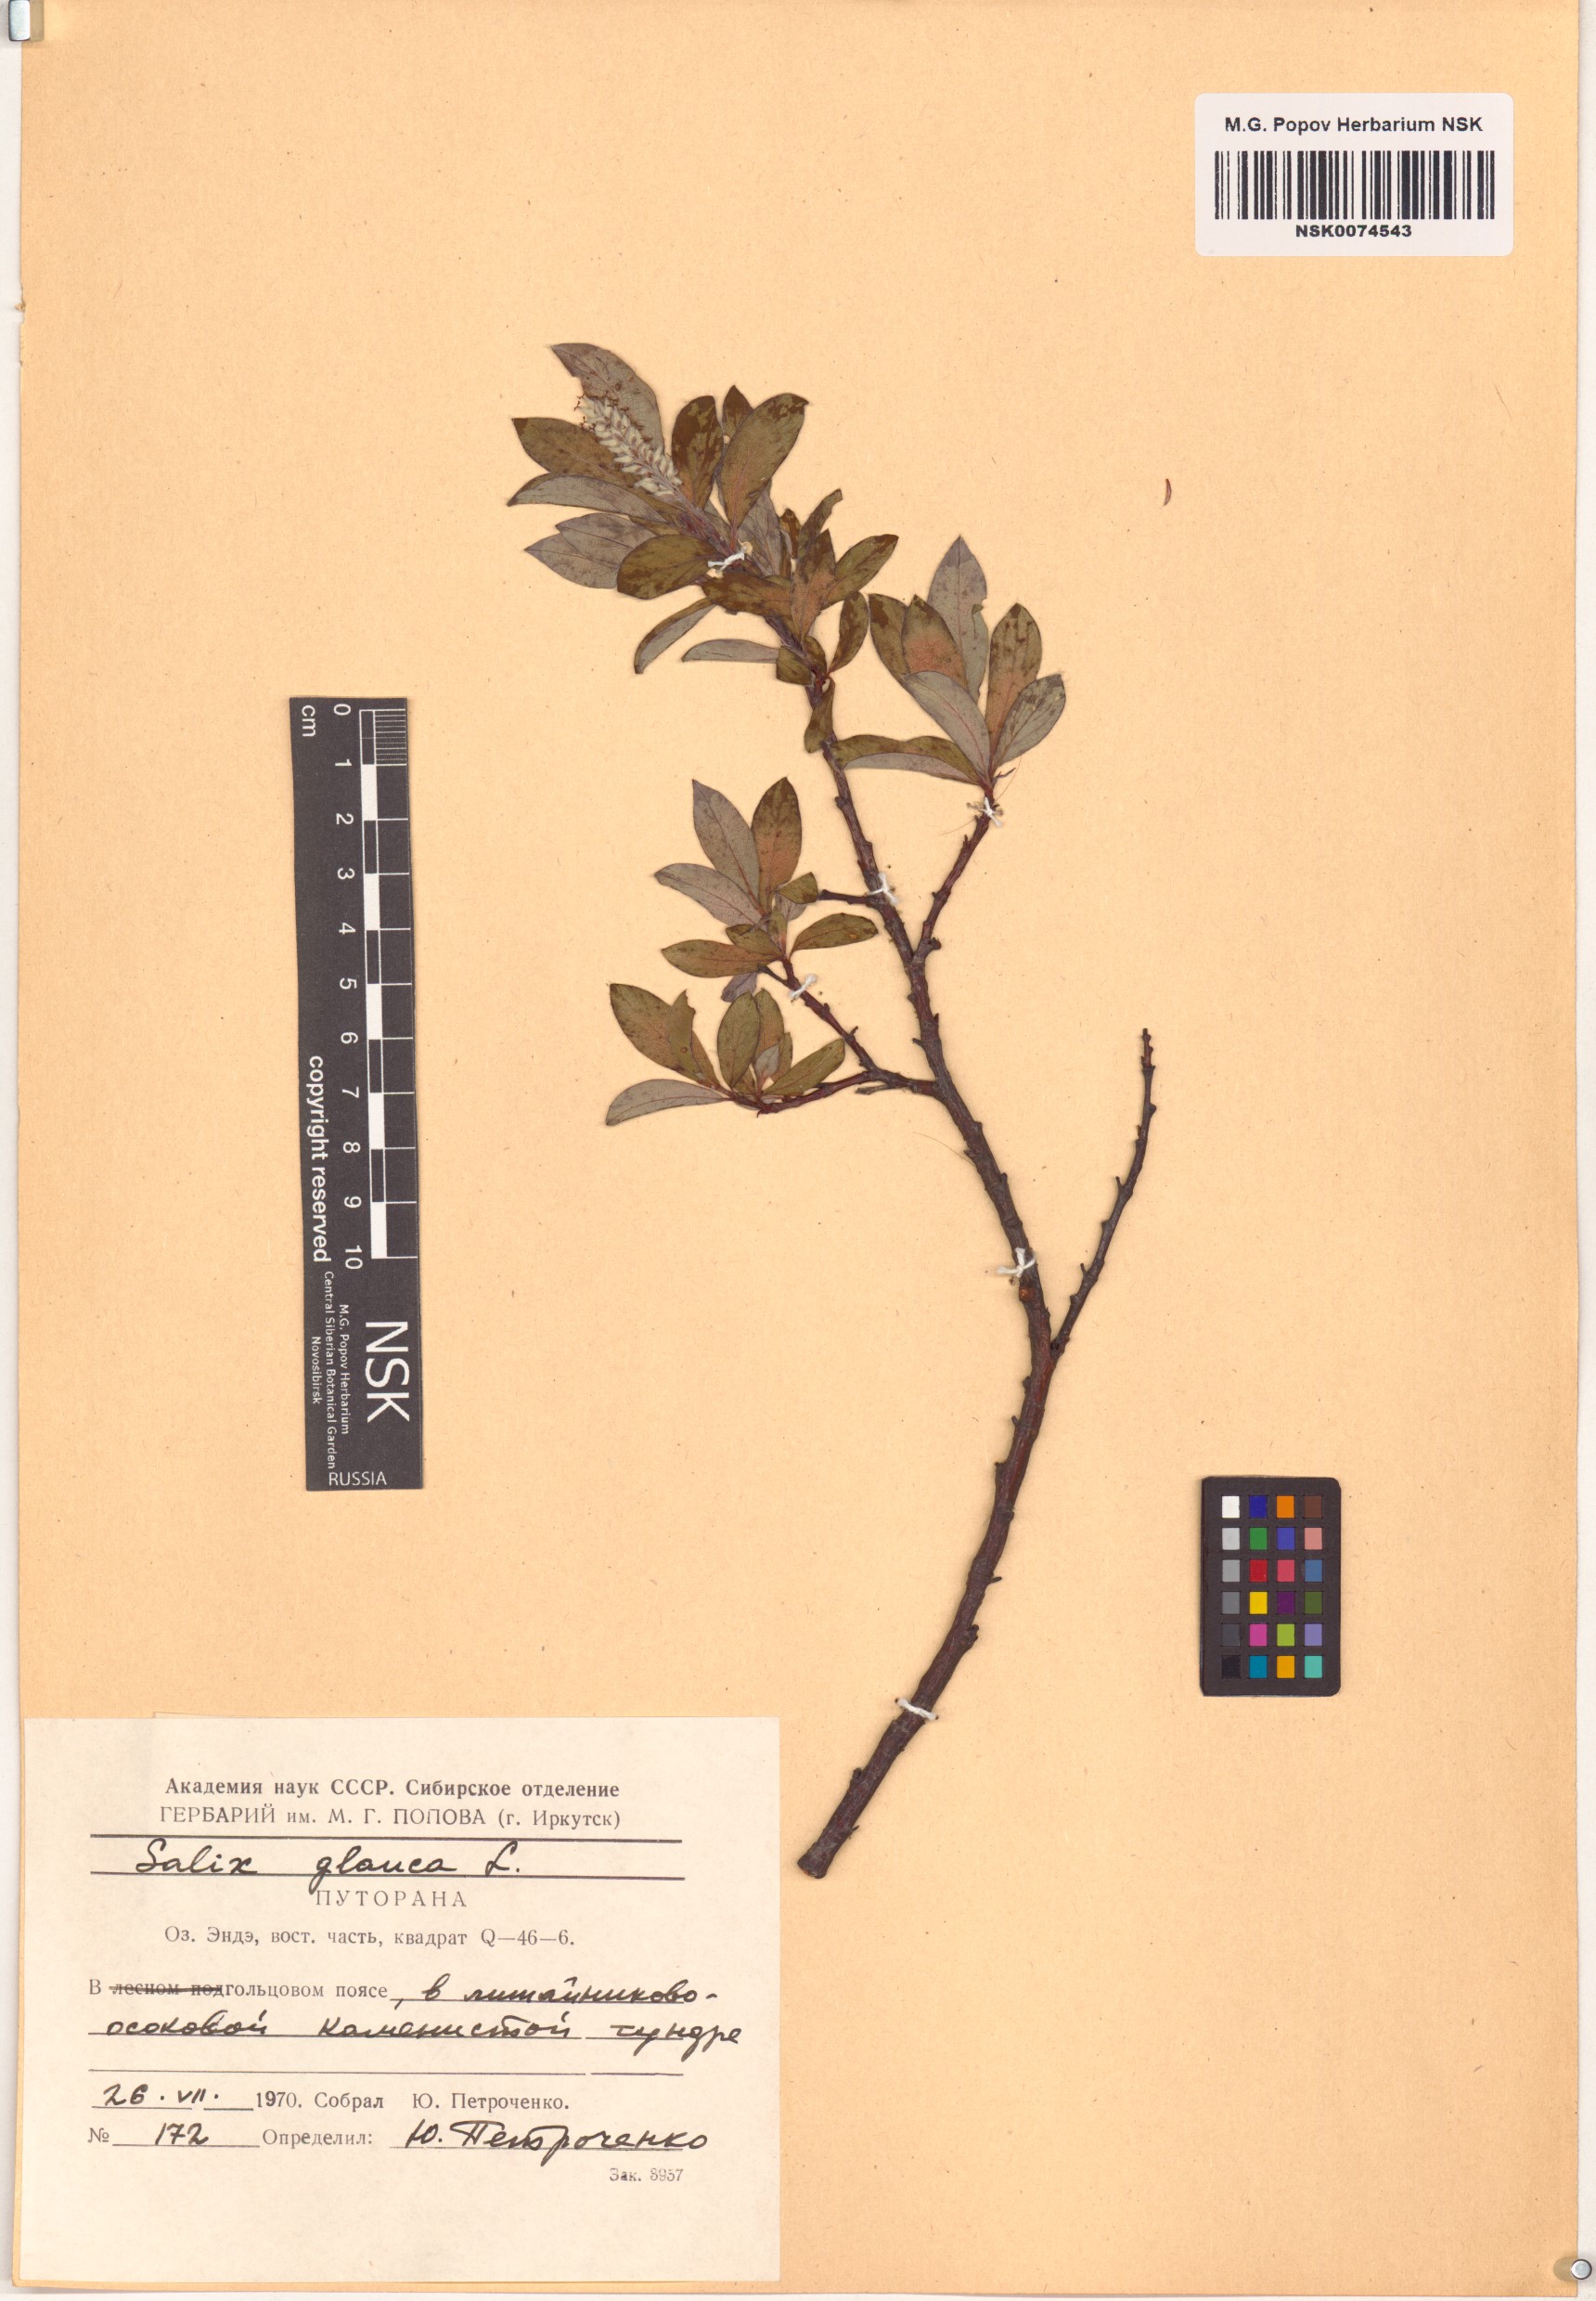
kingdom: Plantae
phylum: Tracheophyta
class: Magnoliopsida
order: Malpighiales
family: Salicaceae
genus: Salix
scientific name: Salix glauca
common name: Glaucous willow
